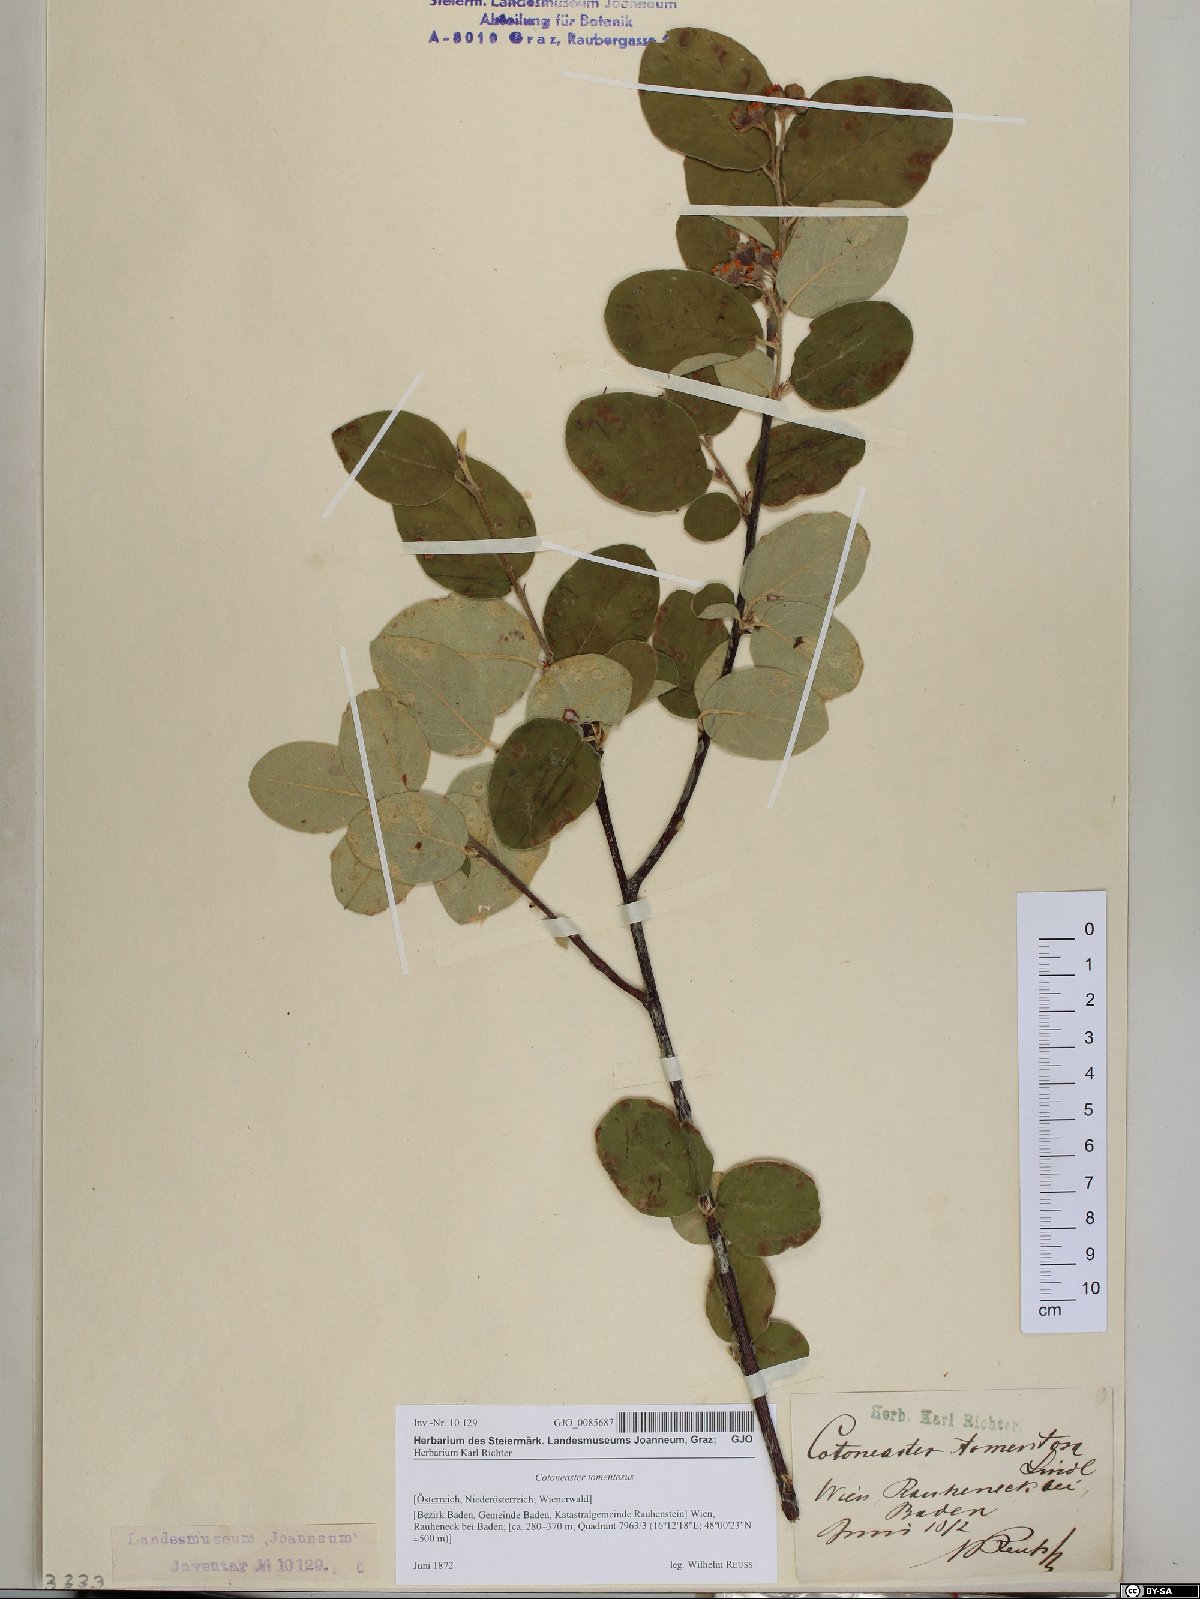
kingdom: Plantae
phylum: Tracheophyta
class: Magnoliopsida
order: Rosales
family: Rosaceae
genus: Cotoneaster
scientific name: Cotoneaster tomentosus
